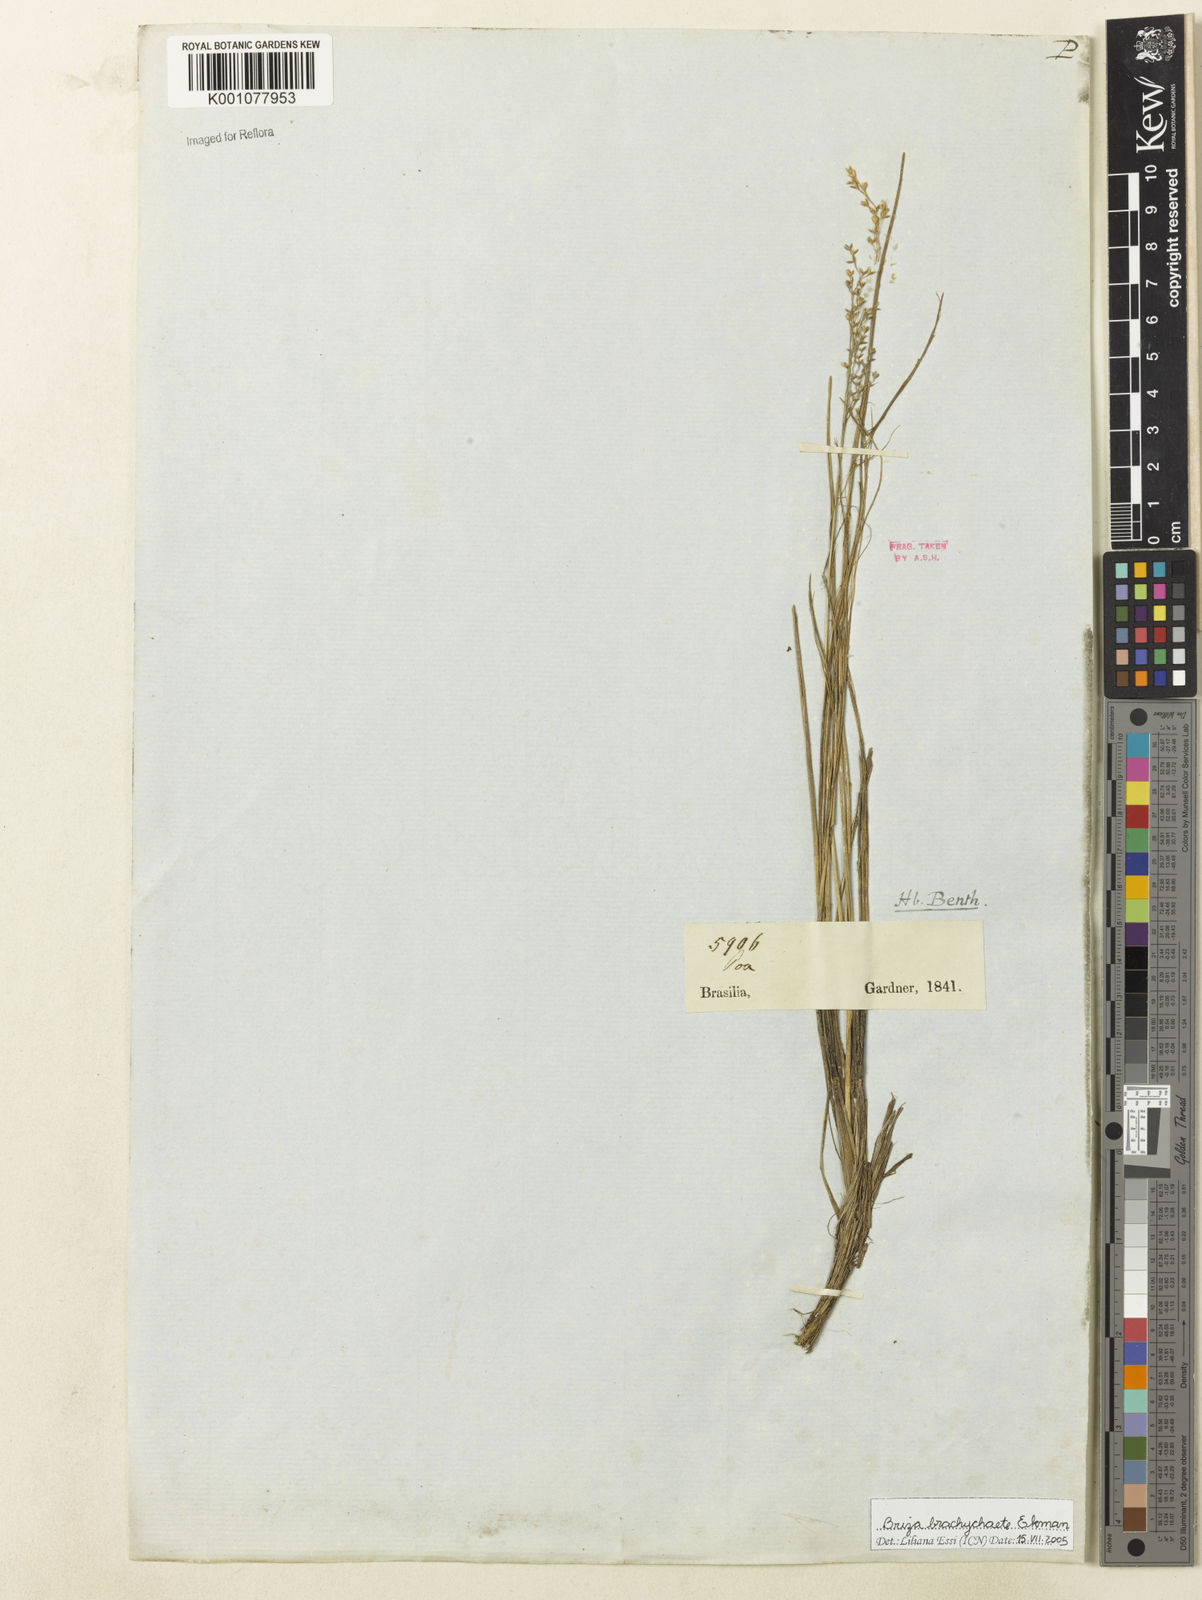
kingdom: Plantae
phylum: Tracheophyta
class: Liliopsida
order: Poales
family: Poaceae
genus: Microbriza
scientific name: Microbriza brachychaete
